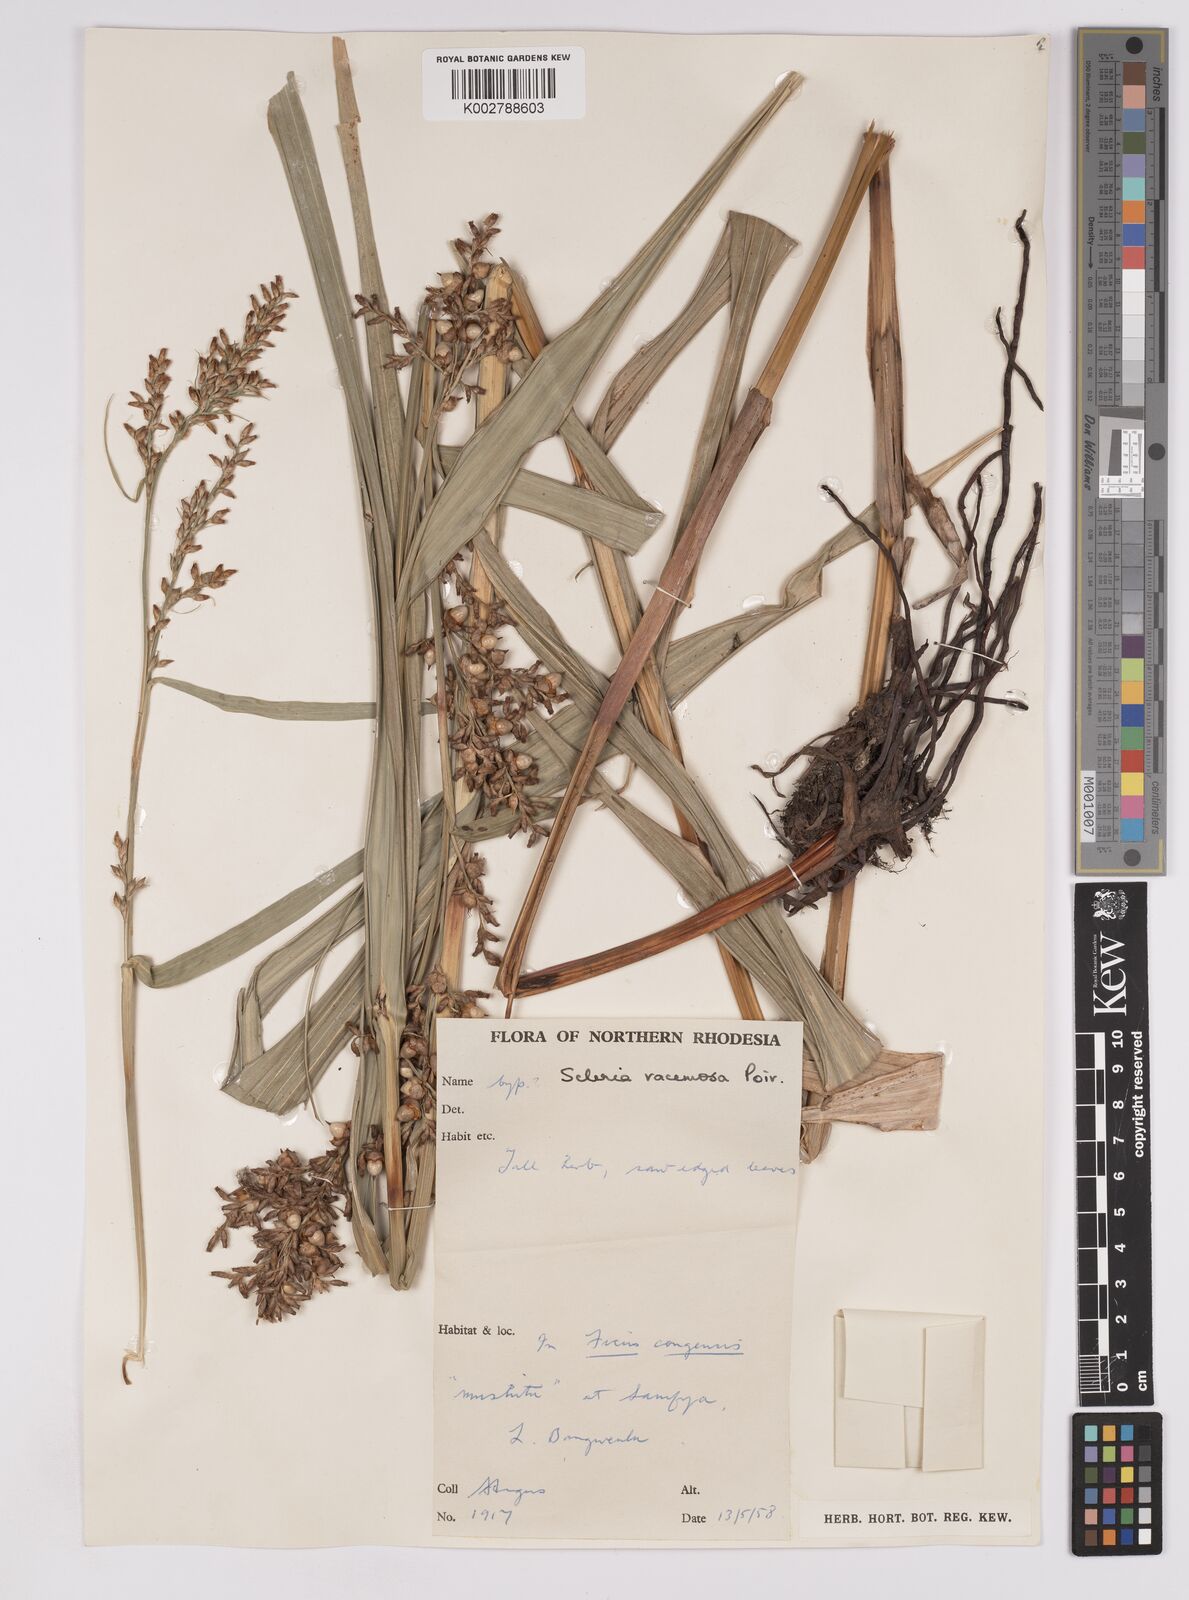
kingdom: Plantae
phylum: Tracheophyta
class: Liliopsida
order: Poales
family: Cyperaceae
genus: Scleria
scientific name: Scleria racemosa
